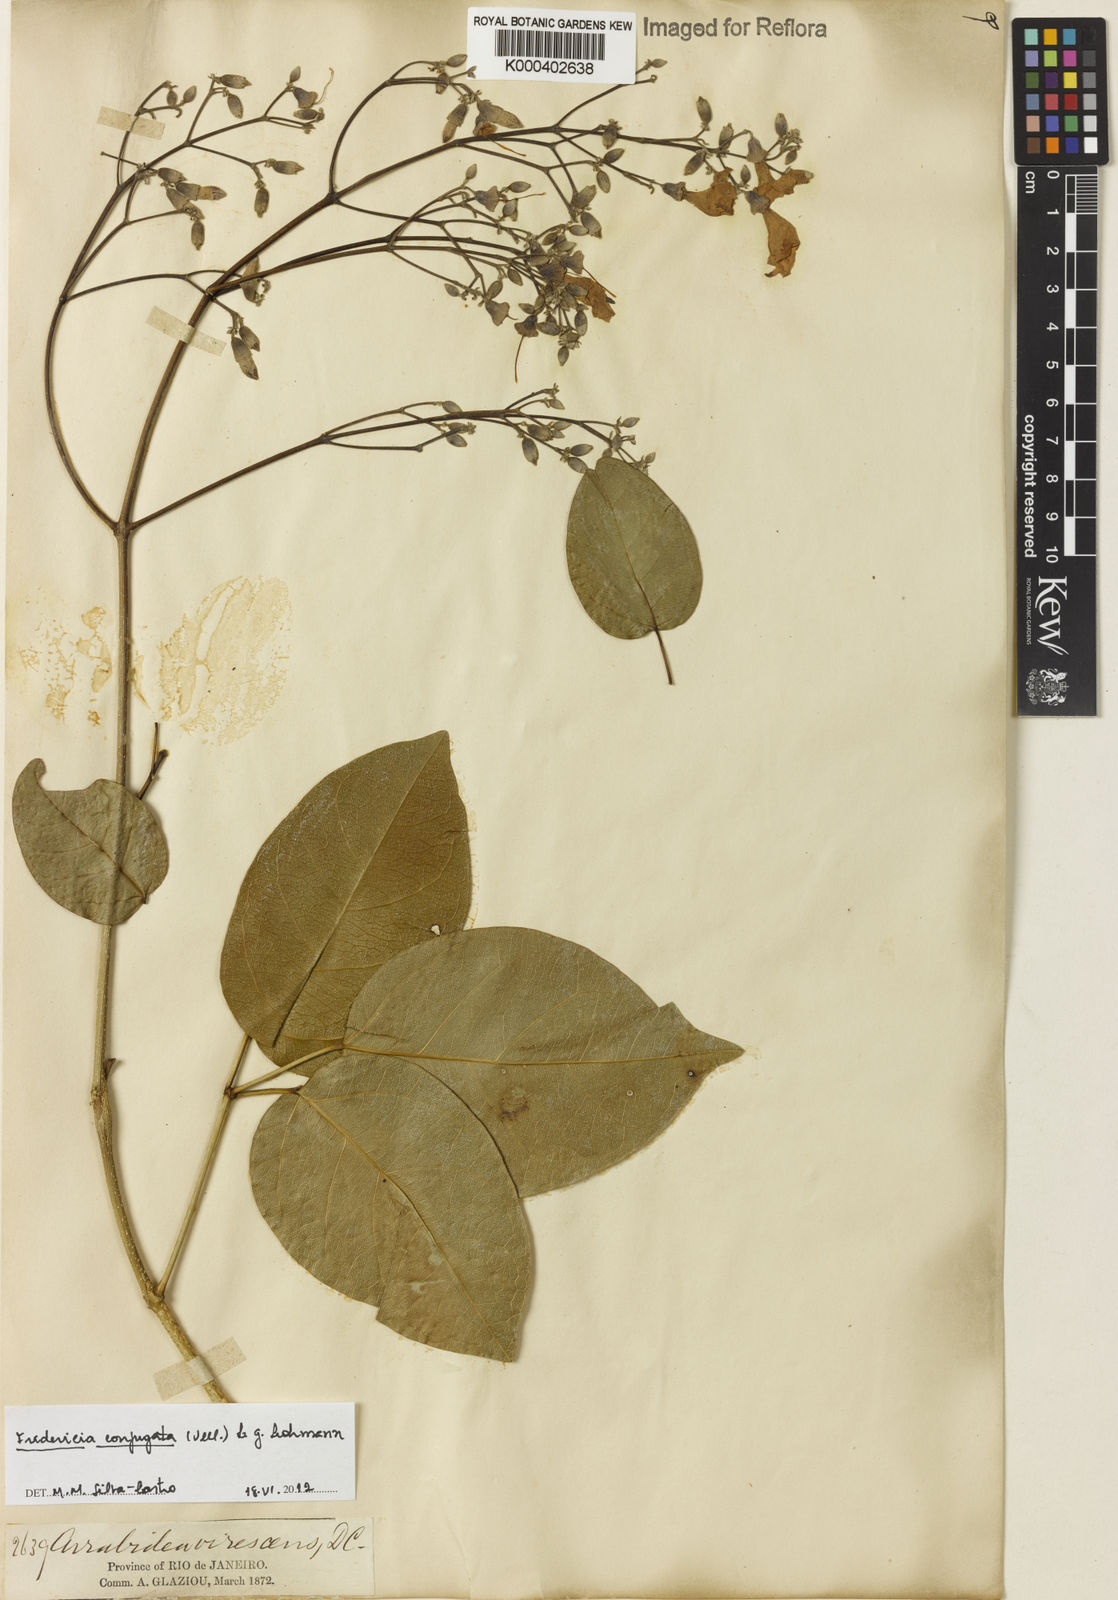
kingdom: Plantae
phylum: Tracheophyta
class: Magnoliopsida
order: Lamiales
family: Bignoniaceae
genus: Fridericia
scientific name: Fridericia conjugata
